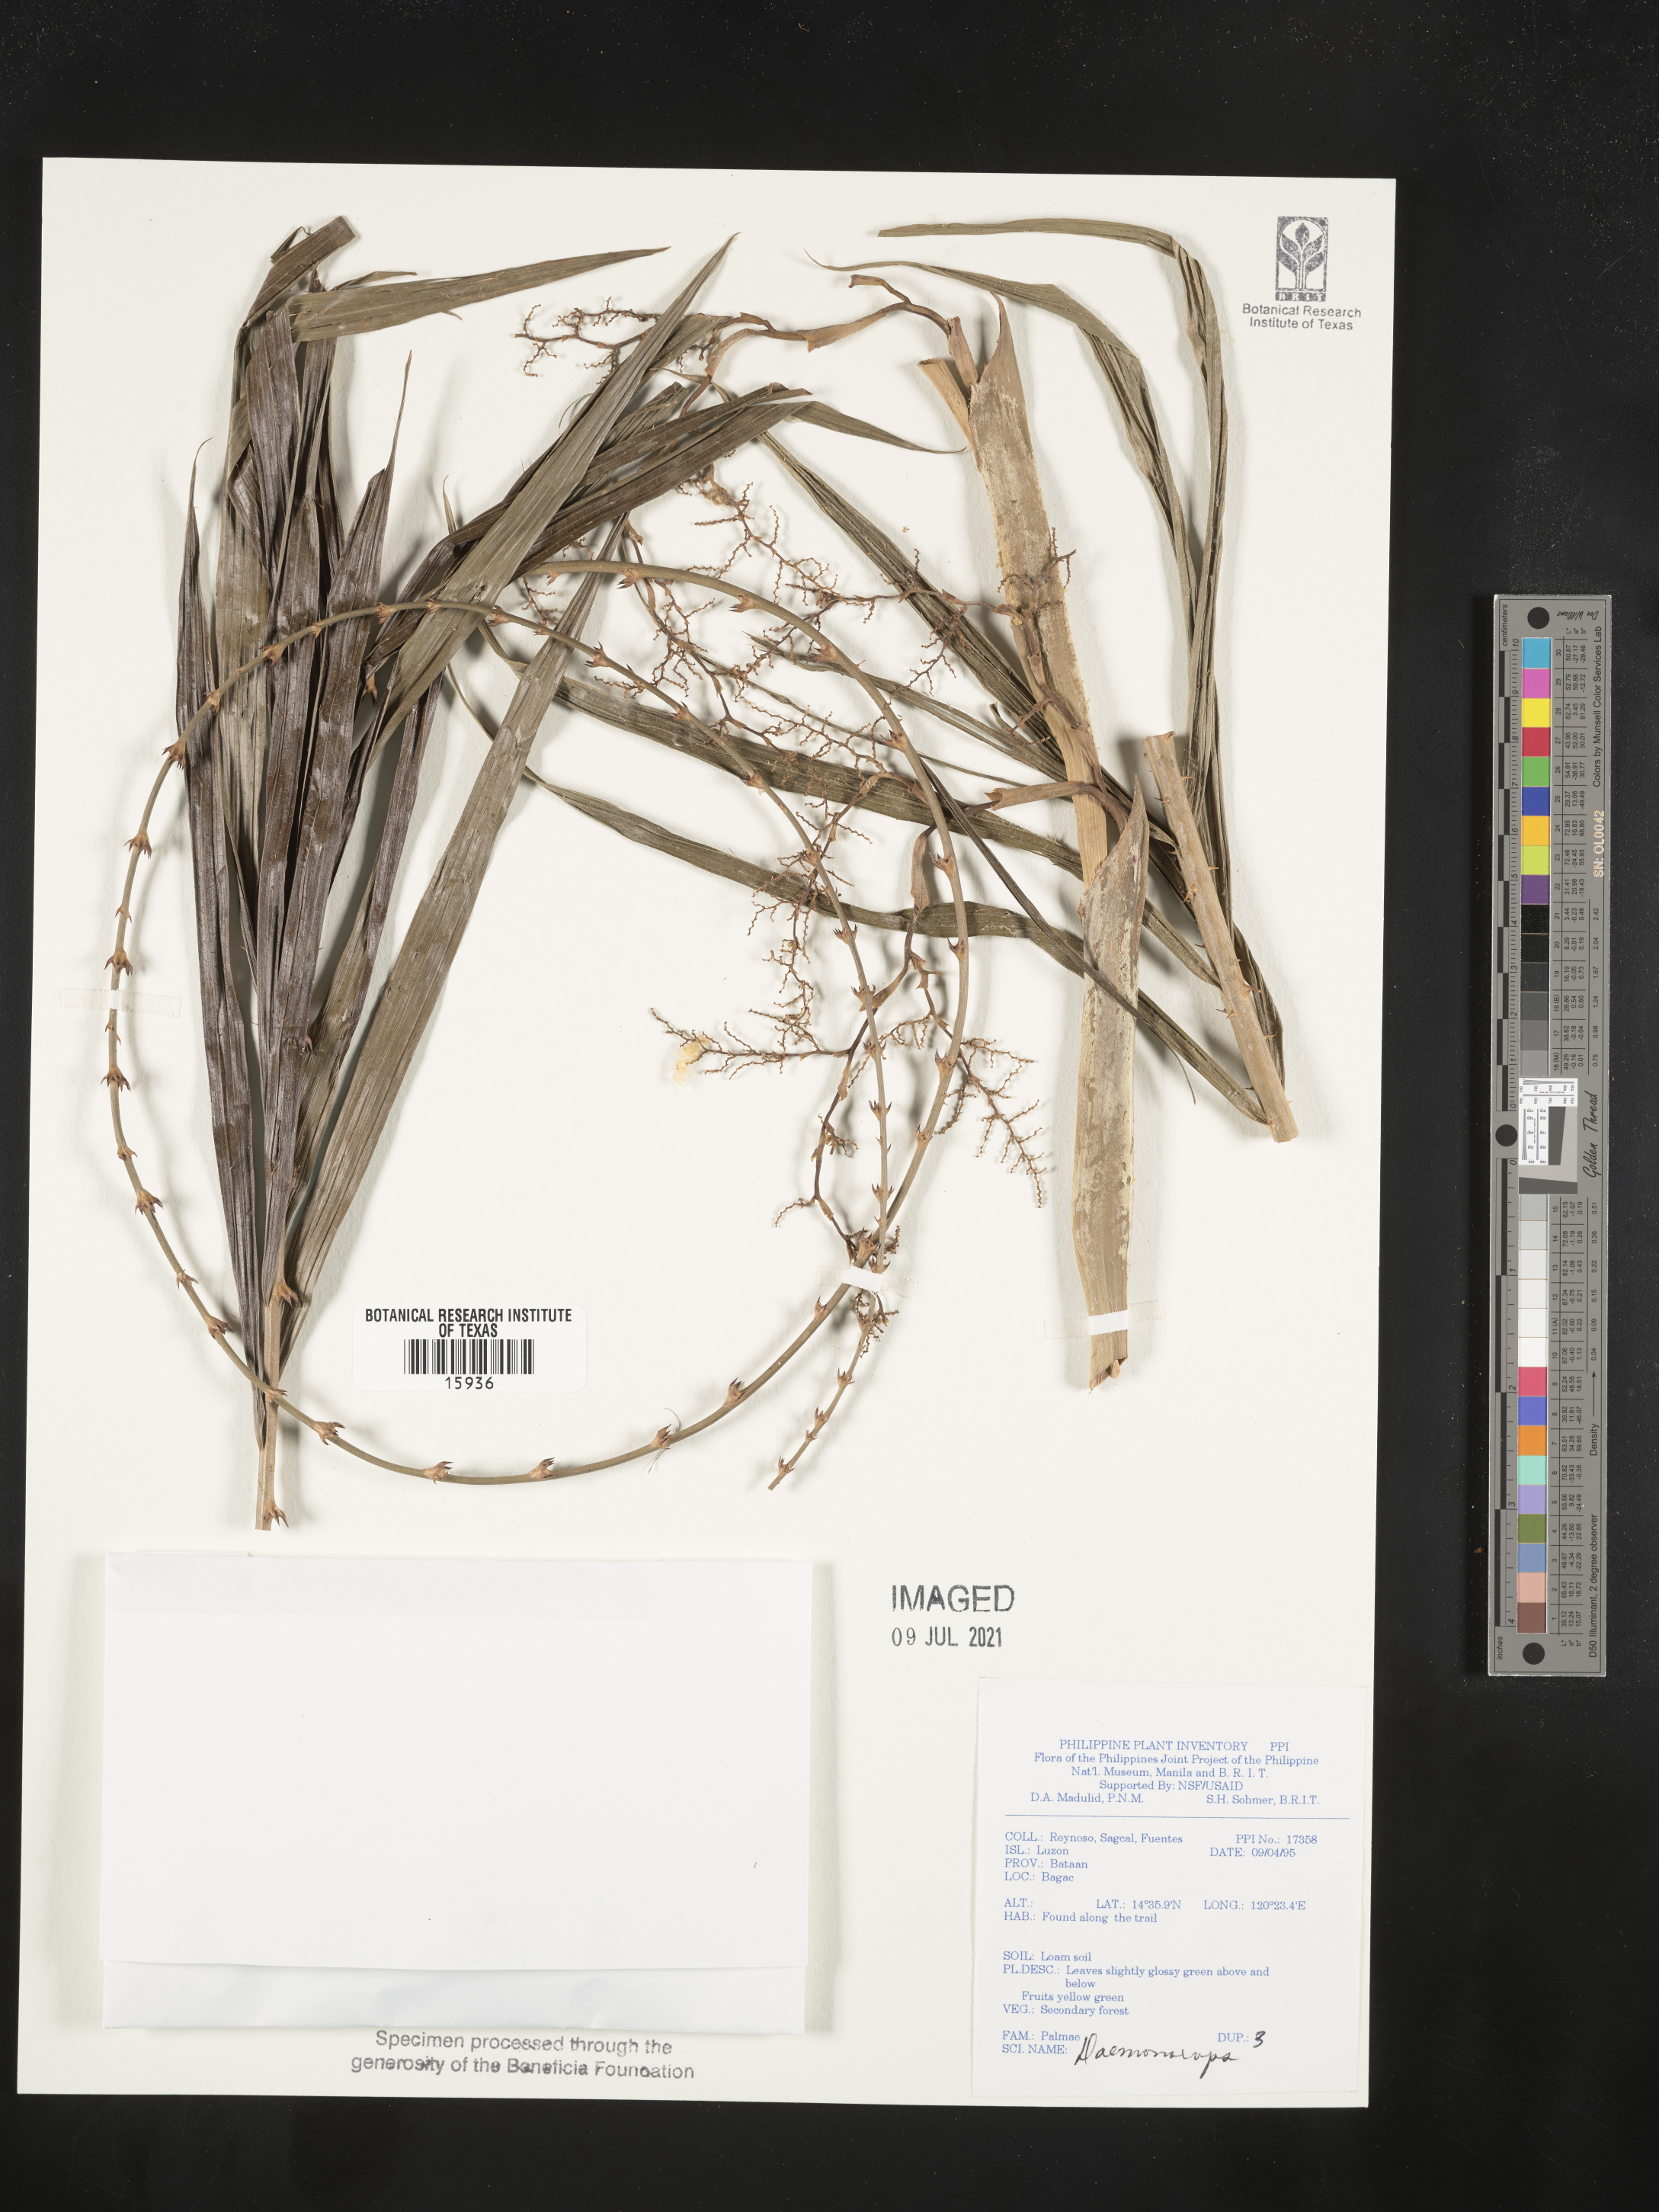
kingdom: Plantae
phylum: Tracheophyta
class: Liliopsida
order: Arecales
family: Arecaceae
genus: Daemonorops
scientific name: Daemonorops
